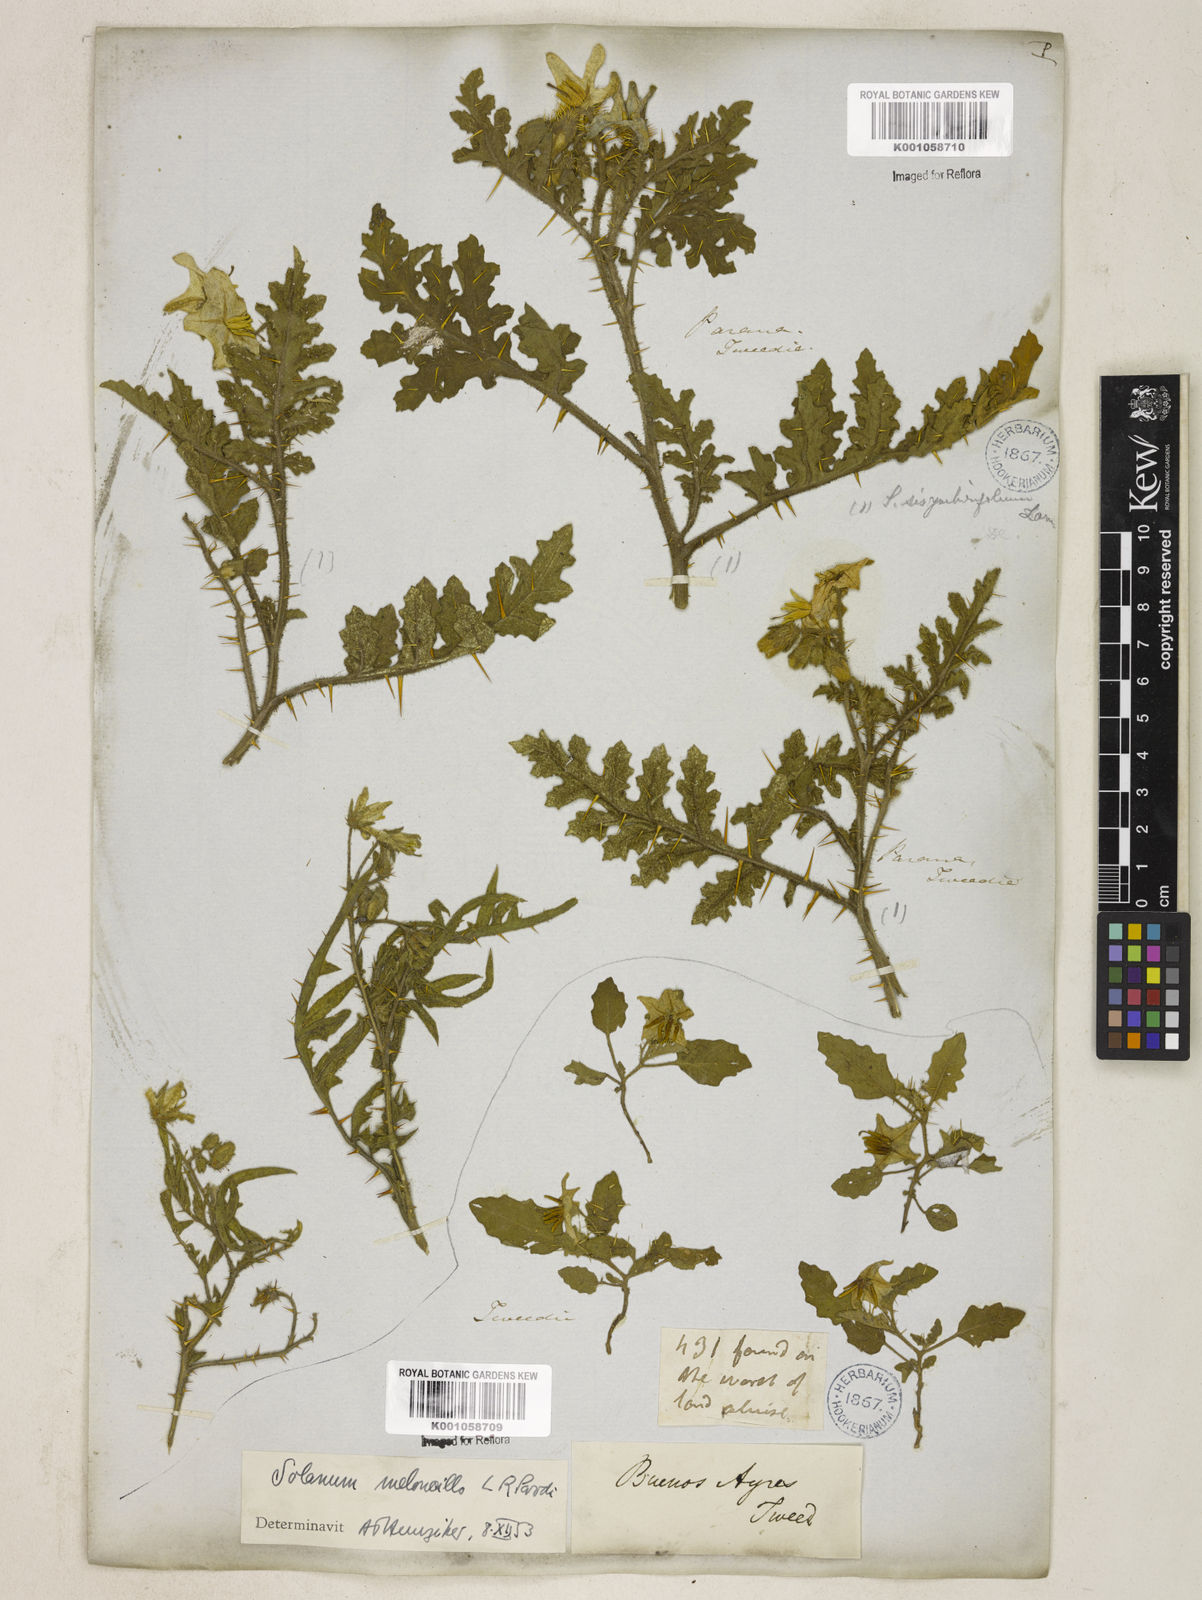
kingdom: Plantae
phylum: Tracheophyta
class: Magnoliopsida
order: Solanales
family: Solanaceae
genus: Solanum
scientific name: Solanum sisymbriifolium
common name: Red buffalo-bur
